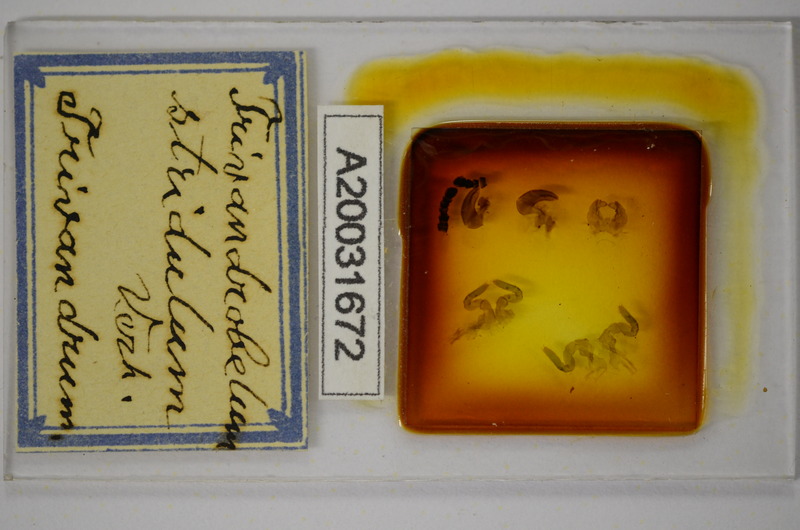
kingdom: Animalia
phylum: Arthropoda
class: Diplopoda
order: Sphaerotheriida
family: Arthrosphaeridae
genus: Arthrosphaera
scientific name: Arthrosphaera stridula
